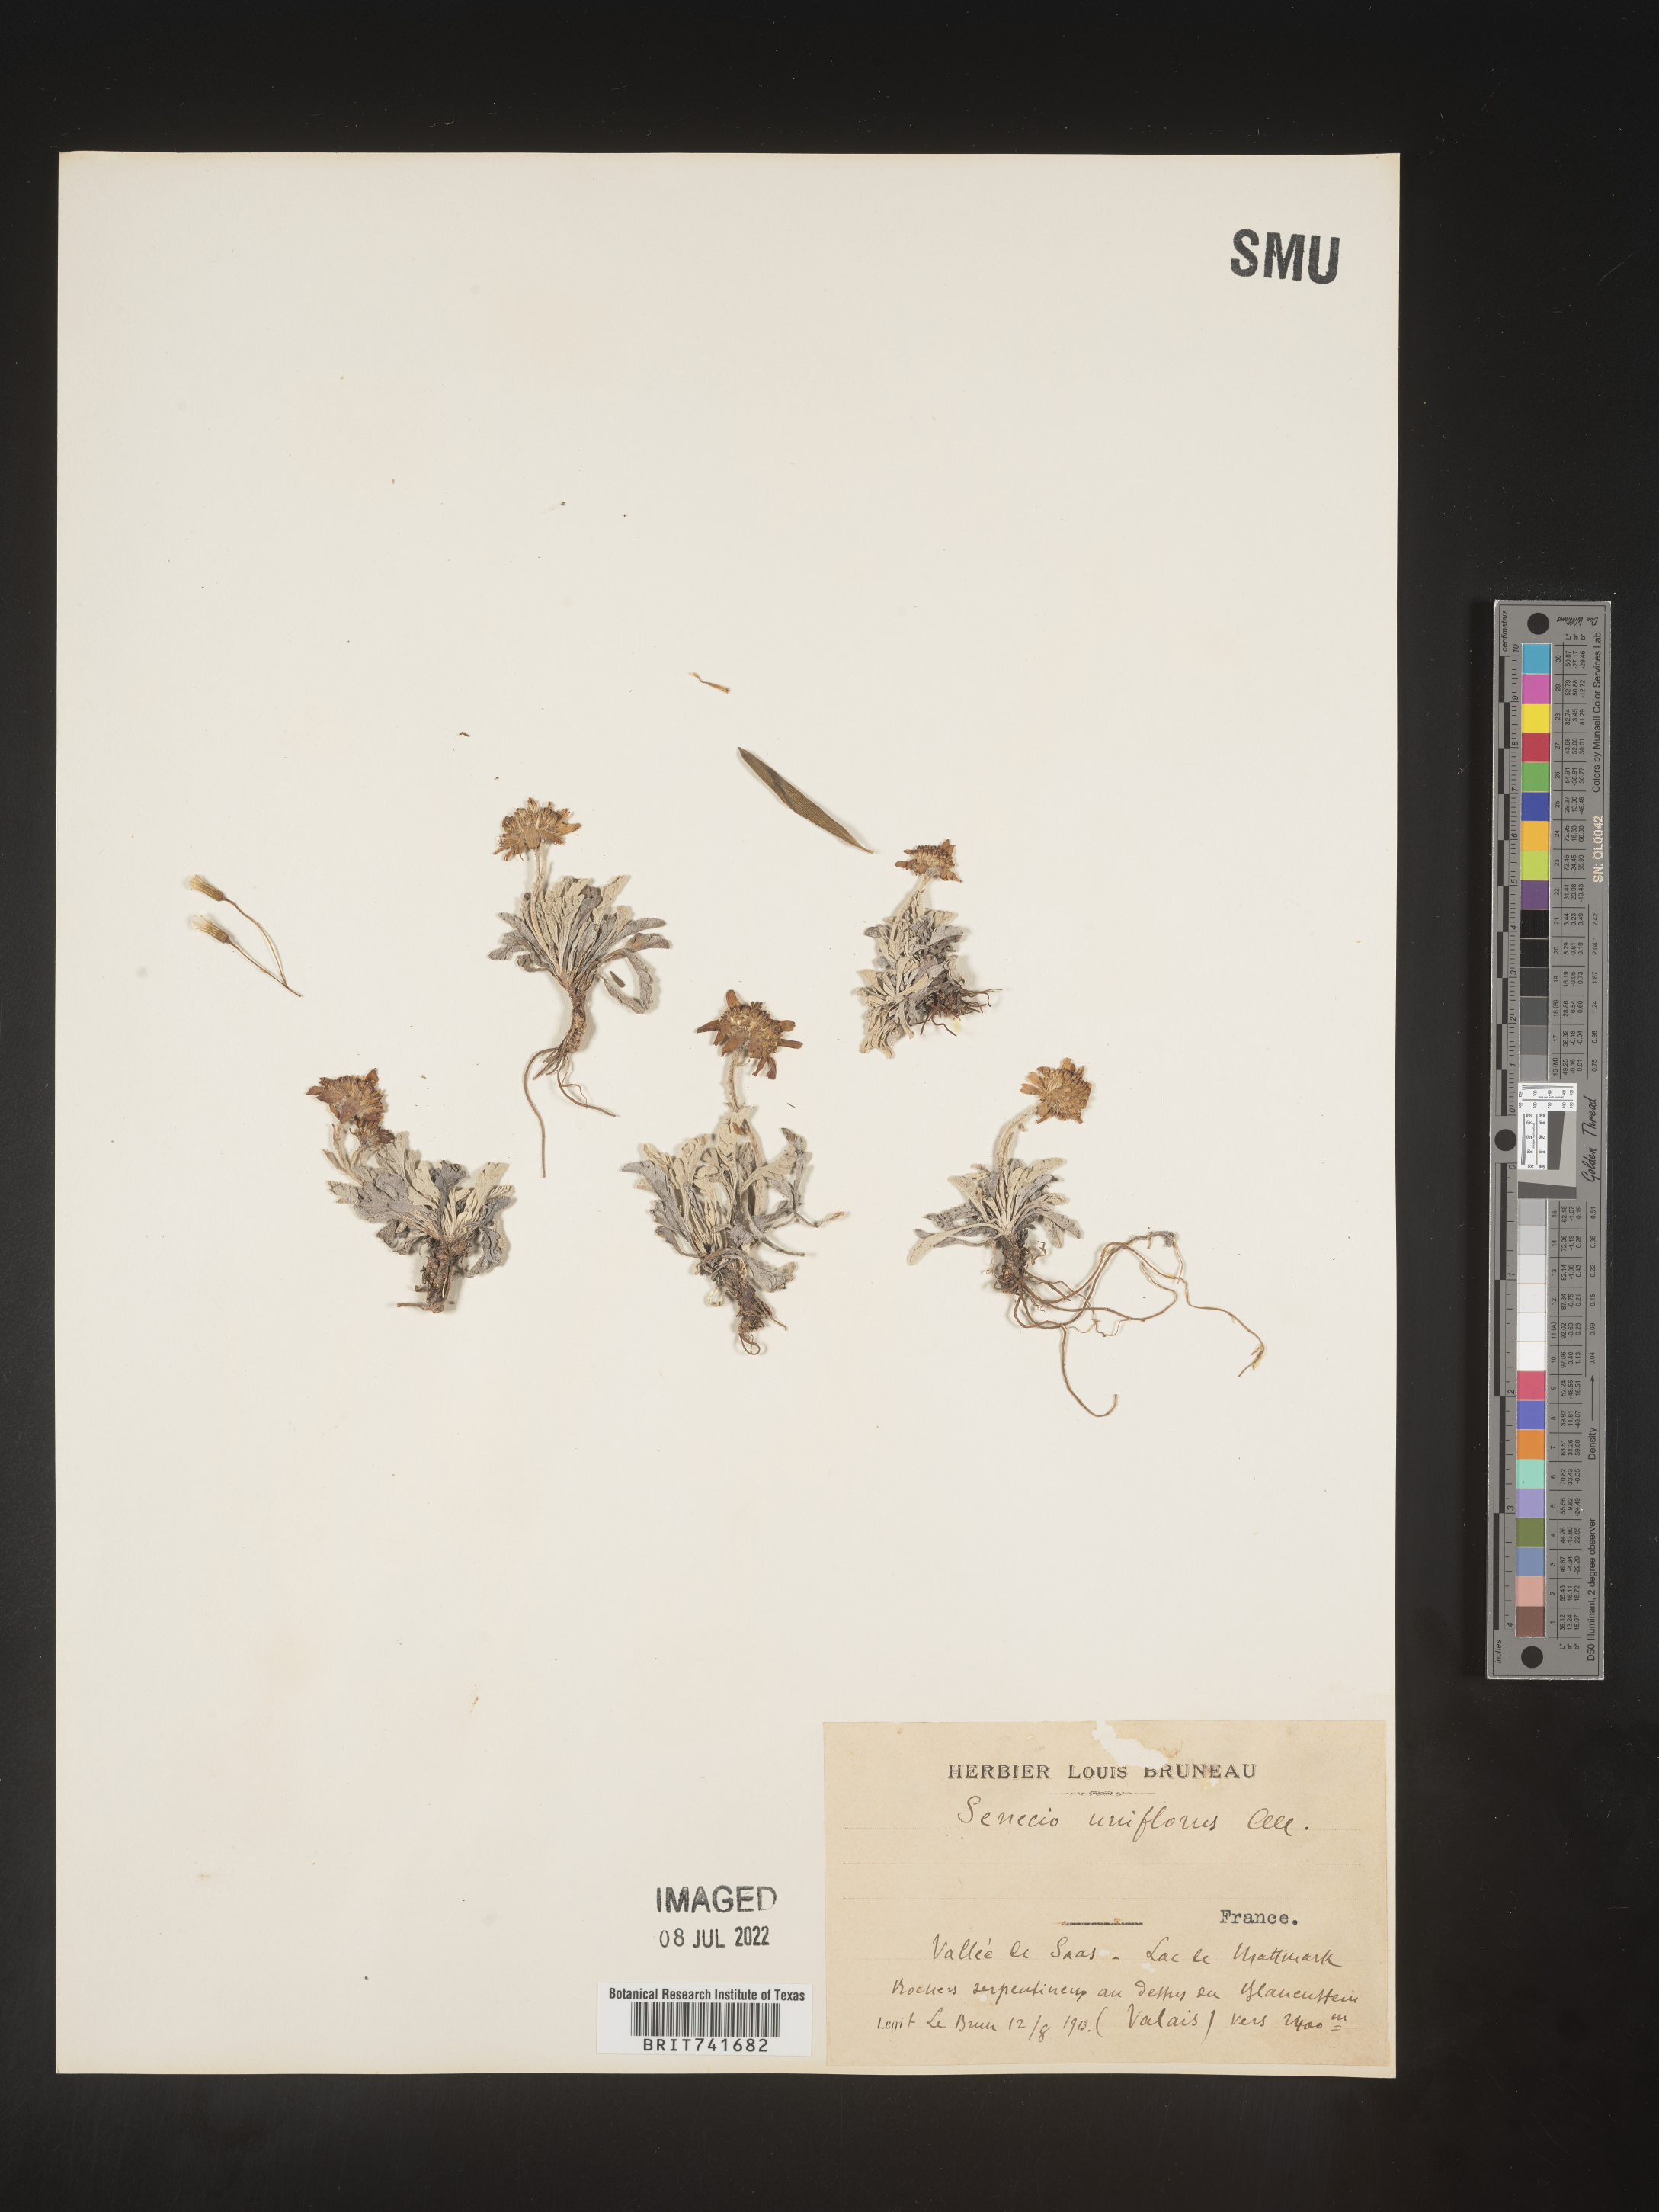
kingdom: Plantae
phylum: Tracheophyta
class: Magnoliopsida
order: Asterales
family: Asteraceae
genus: Senecio
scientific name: Senecio
